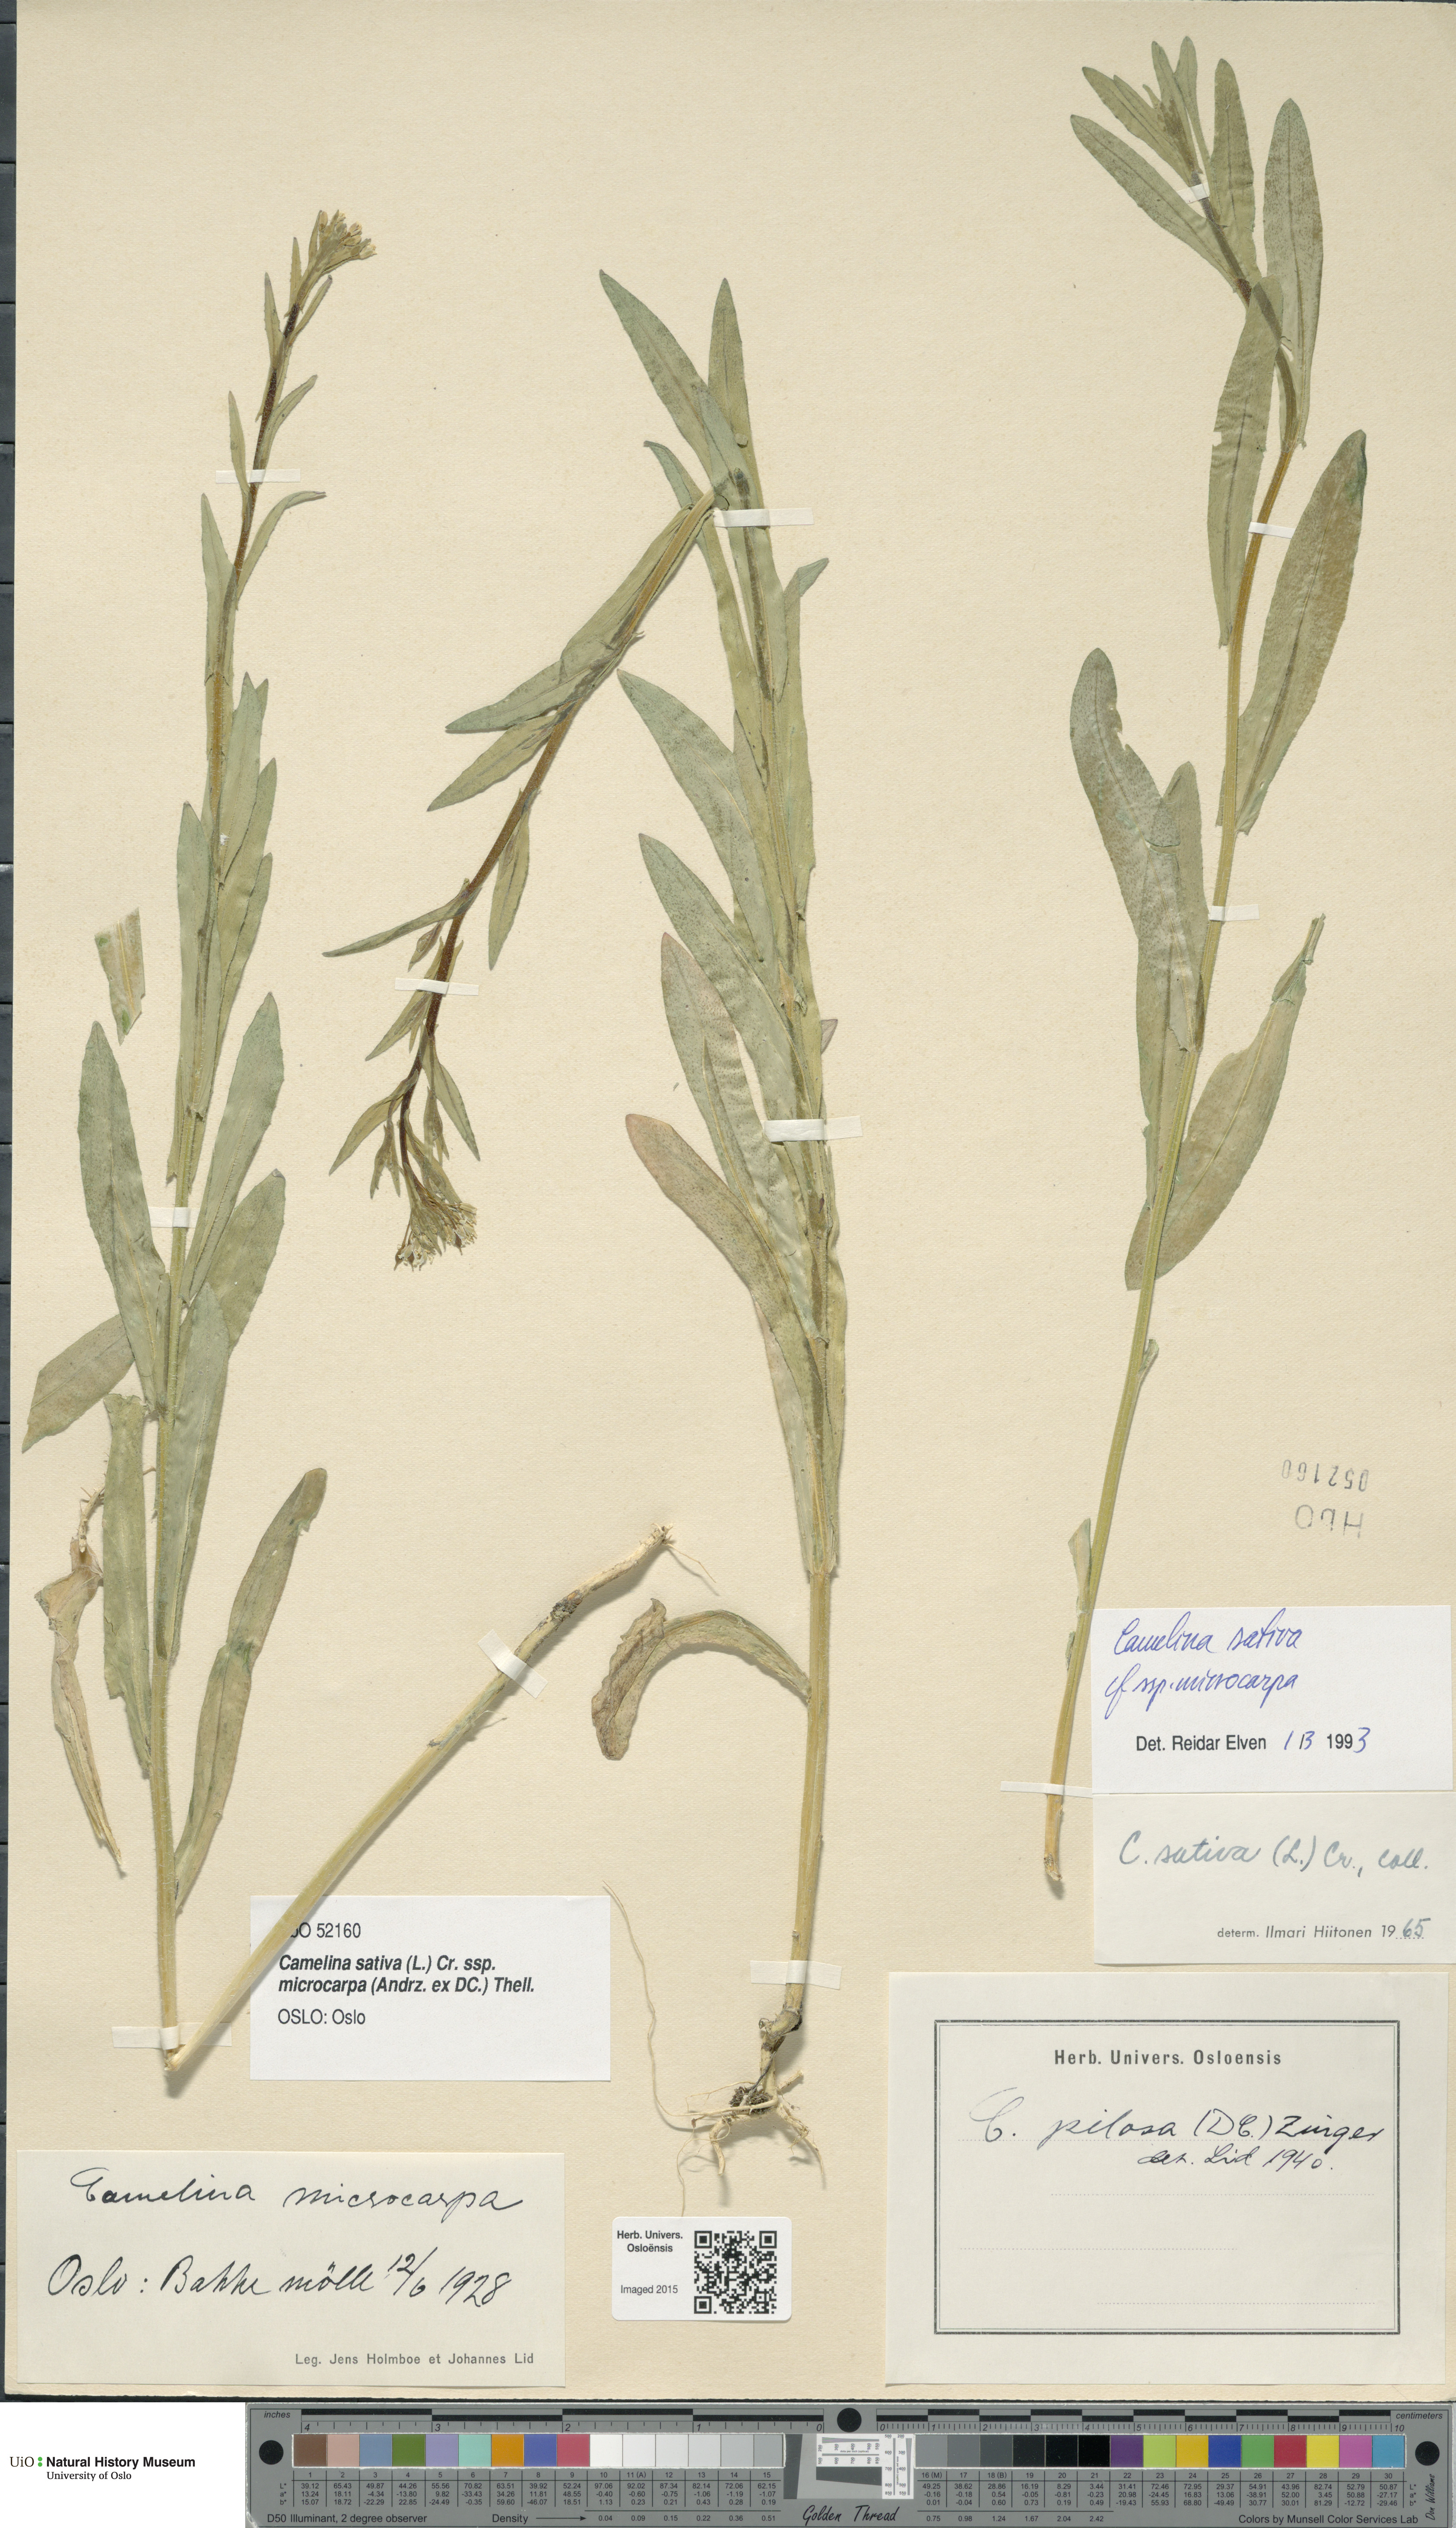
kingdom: Plantae
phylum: Tracheophyta
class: Magnoliopsida
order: Brassicales
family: Brassicaceae
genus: Camelina
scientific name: Camelina sativa
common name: Gold-of-pleasure
